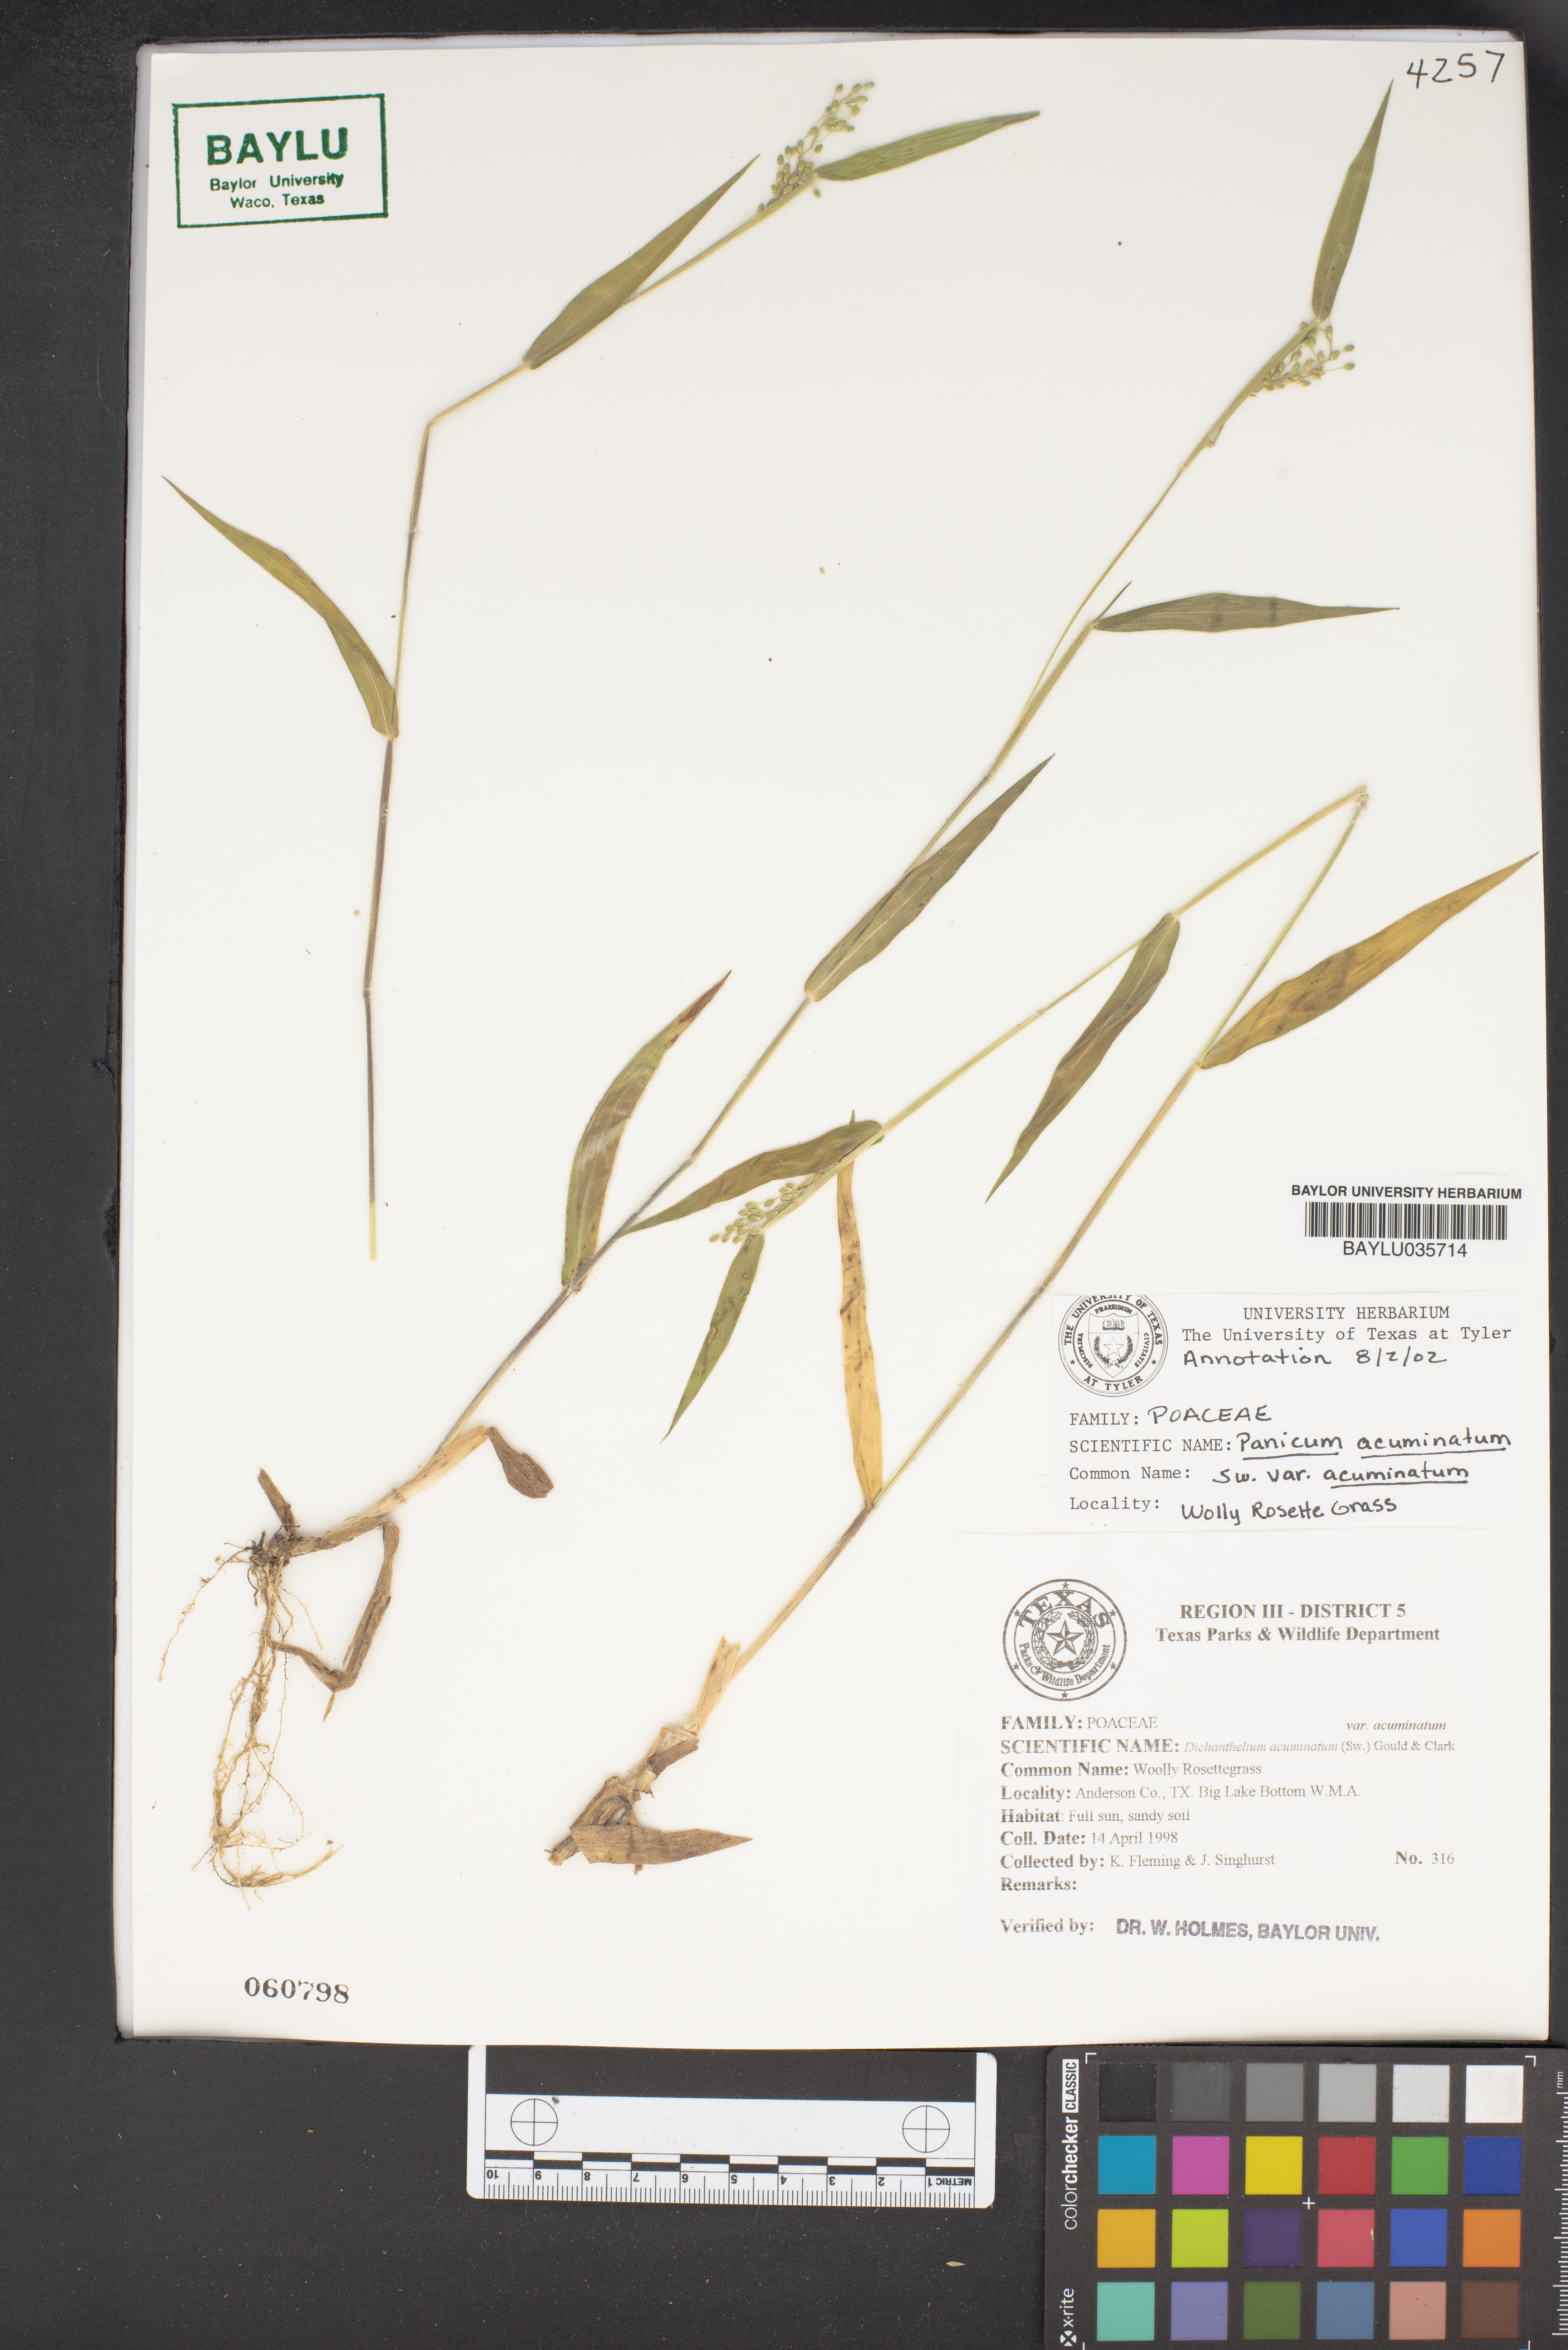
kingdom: Plantae
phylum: Tracheophyta
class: Liliopsida
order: Poales
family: Poaceae
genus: Dichanthelium
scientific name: Dichanthelium acuminatum
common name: Hairy panic grass
